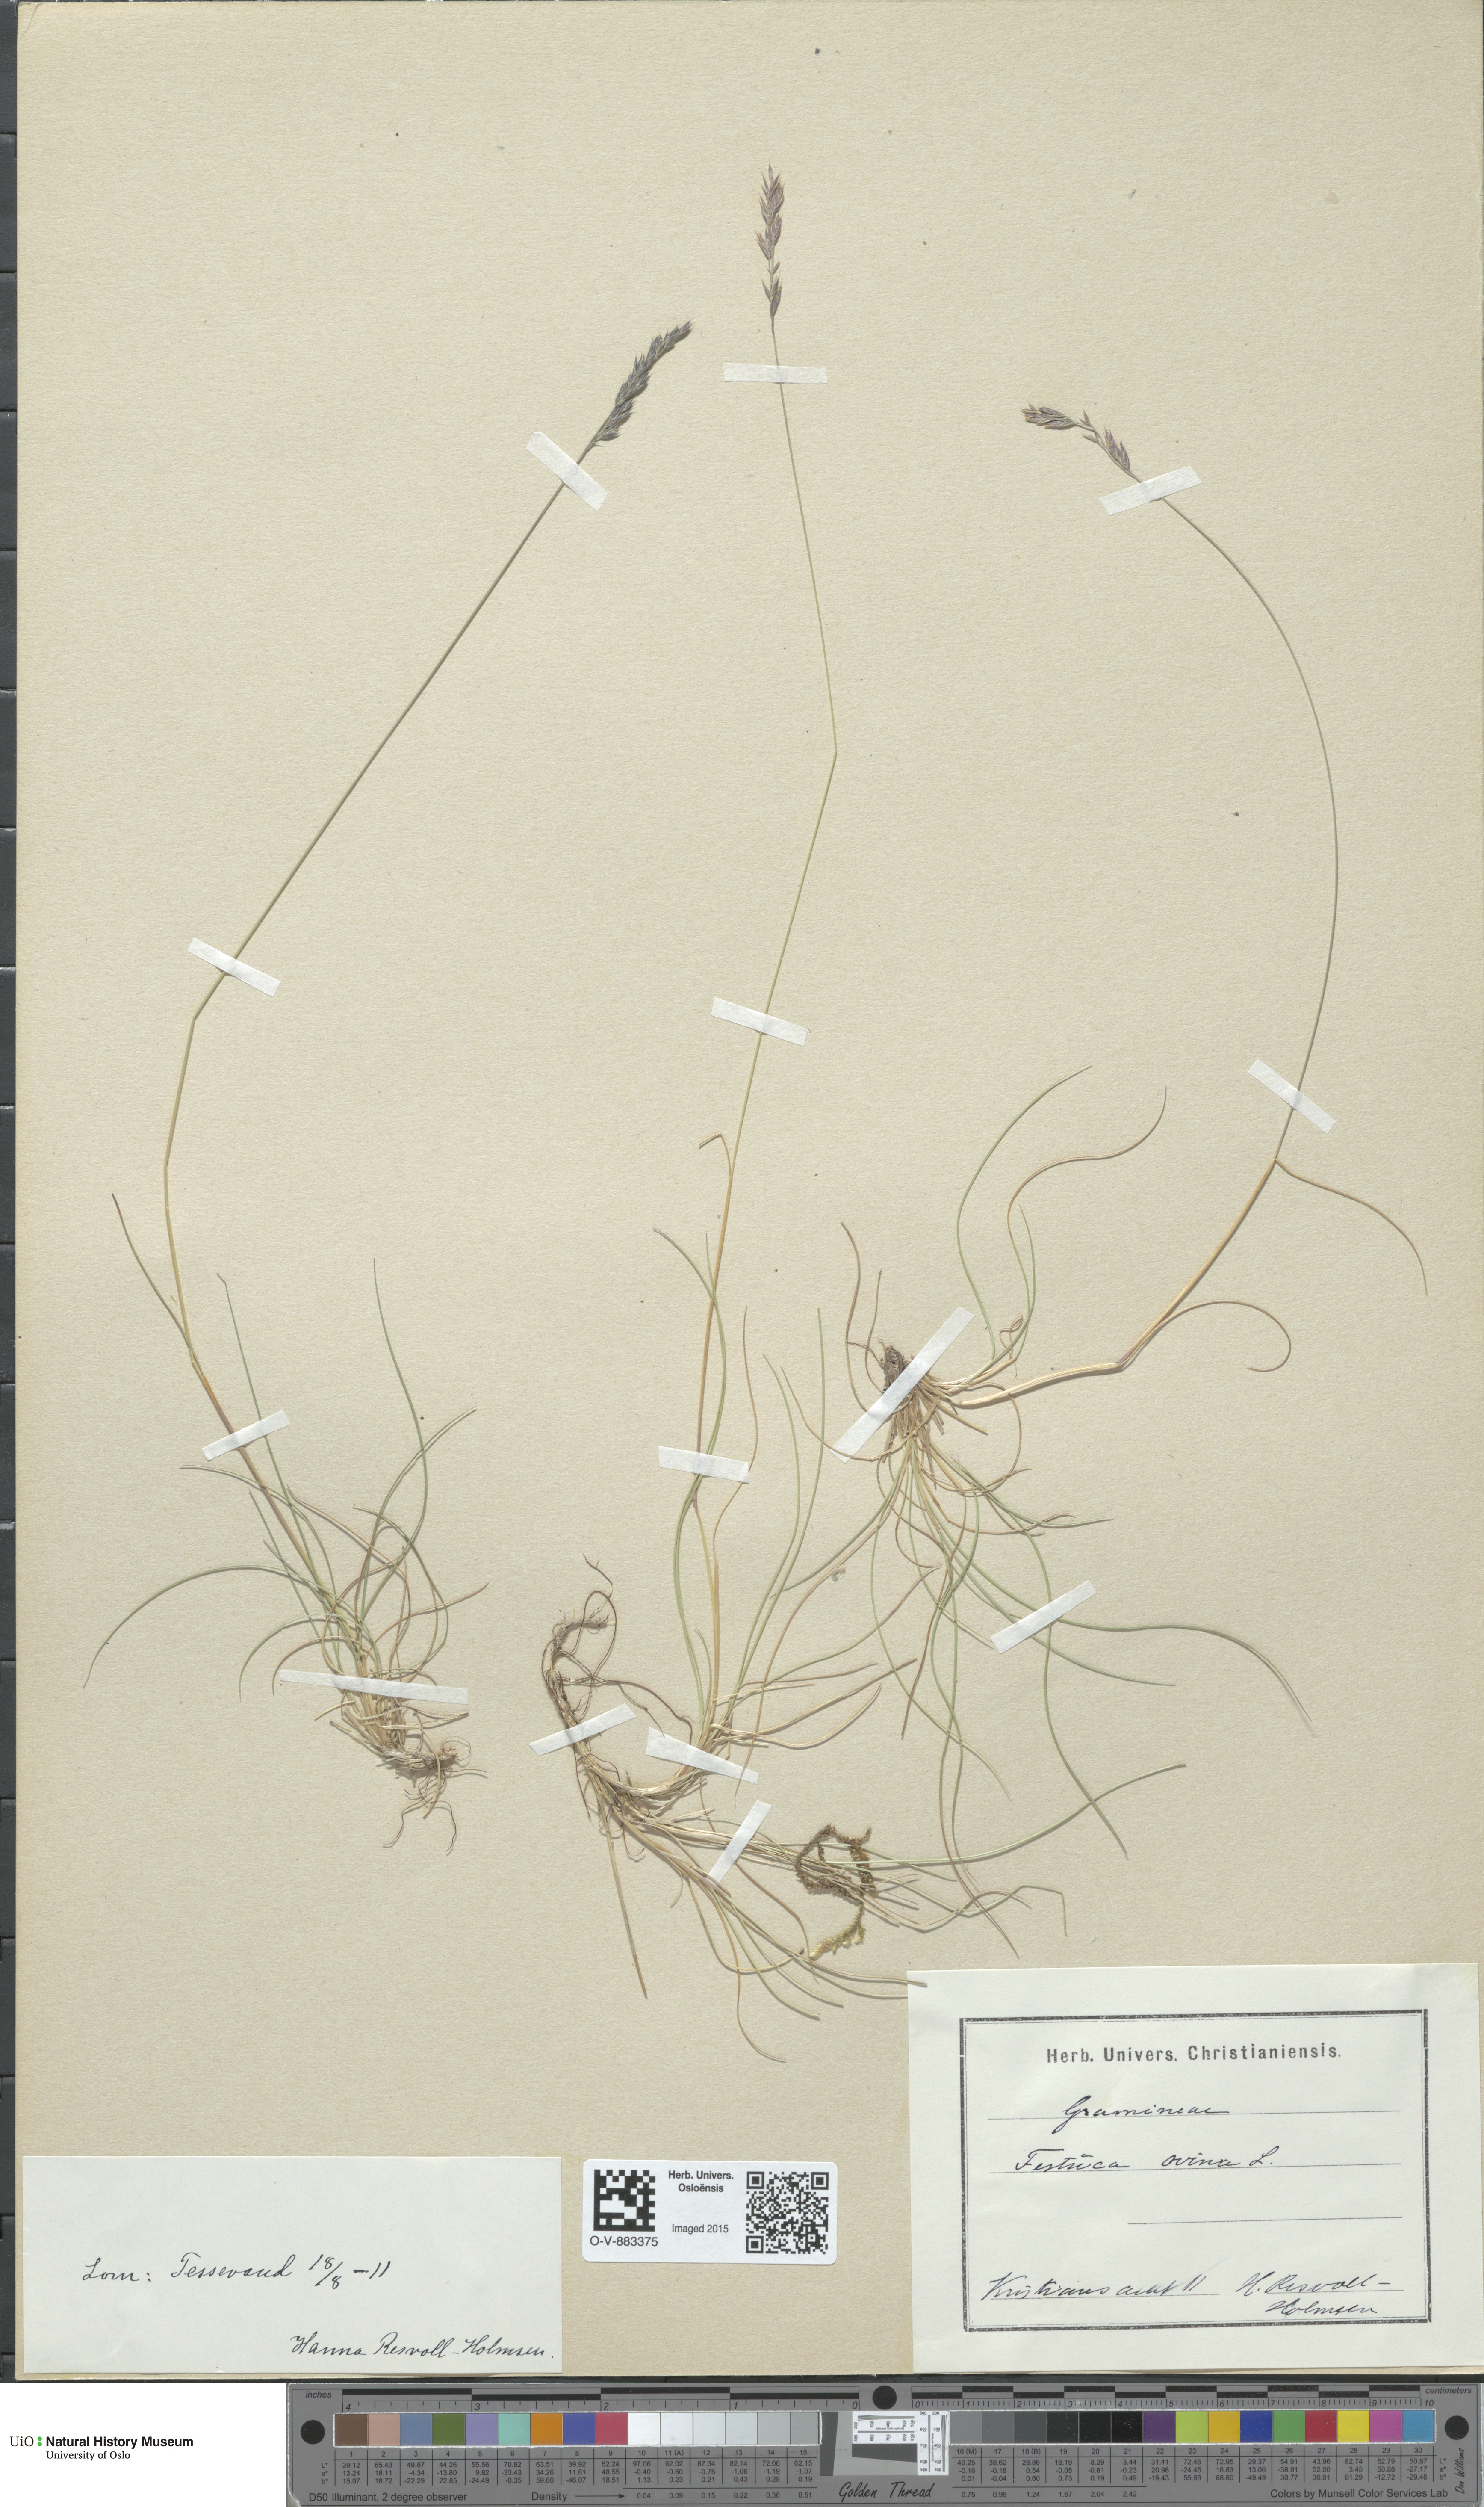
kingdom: Plantae
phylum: Tracheophyta
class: Liliopsida
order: Poales
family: Poaceae
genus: Festuca
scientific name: Festuca ovina
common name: Sheep fescue
